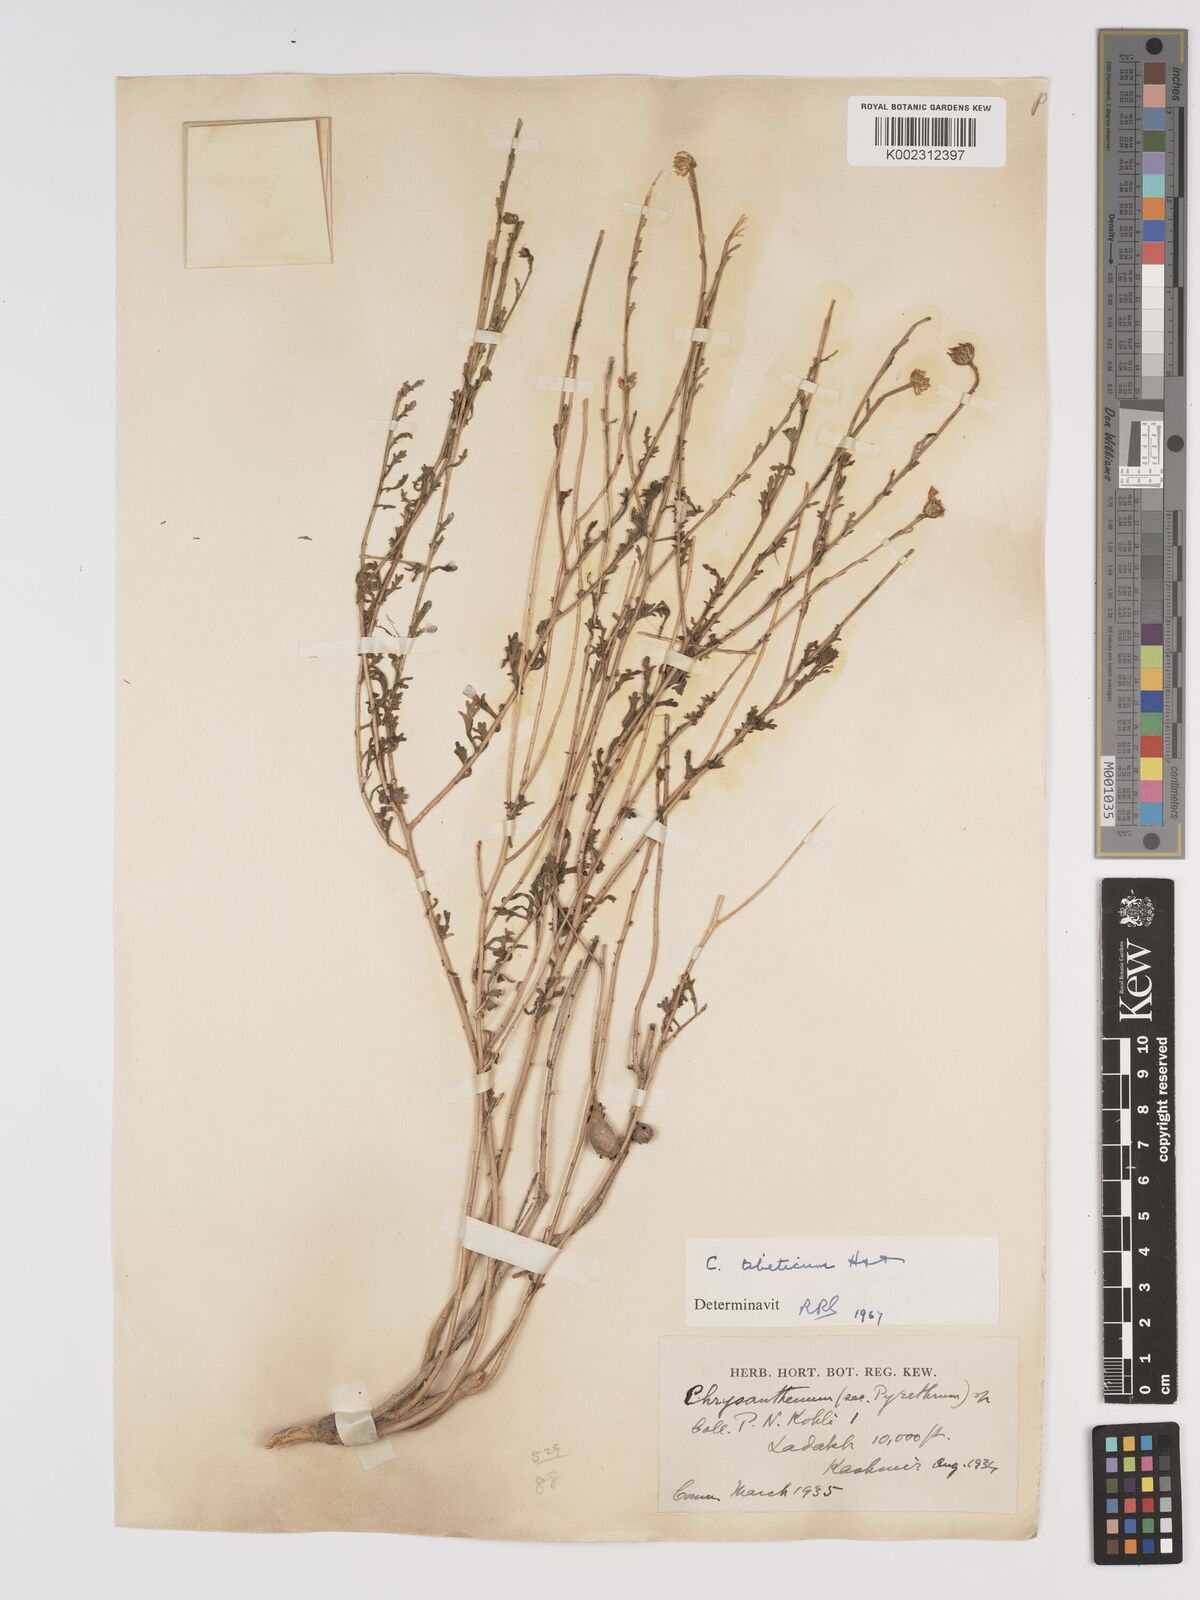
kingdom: Plantae
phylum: Tracheophyta
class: Magnoliopsida
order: Asterales
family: Asteraceae
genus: Tanacetum
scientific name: Tanacetum artemisioides
